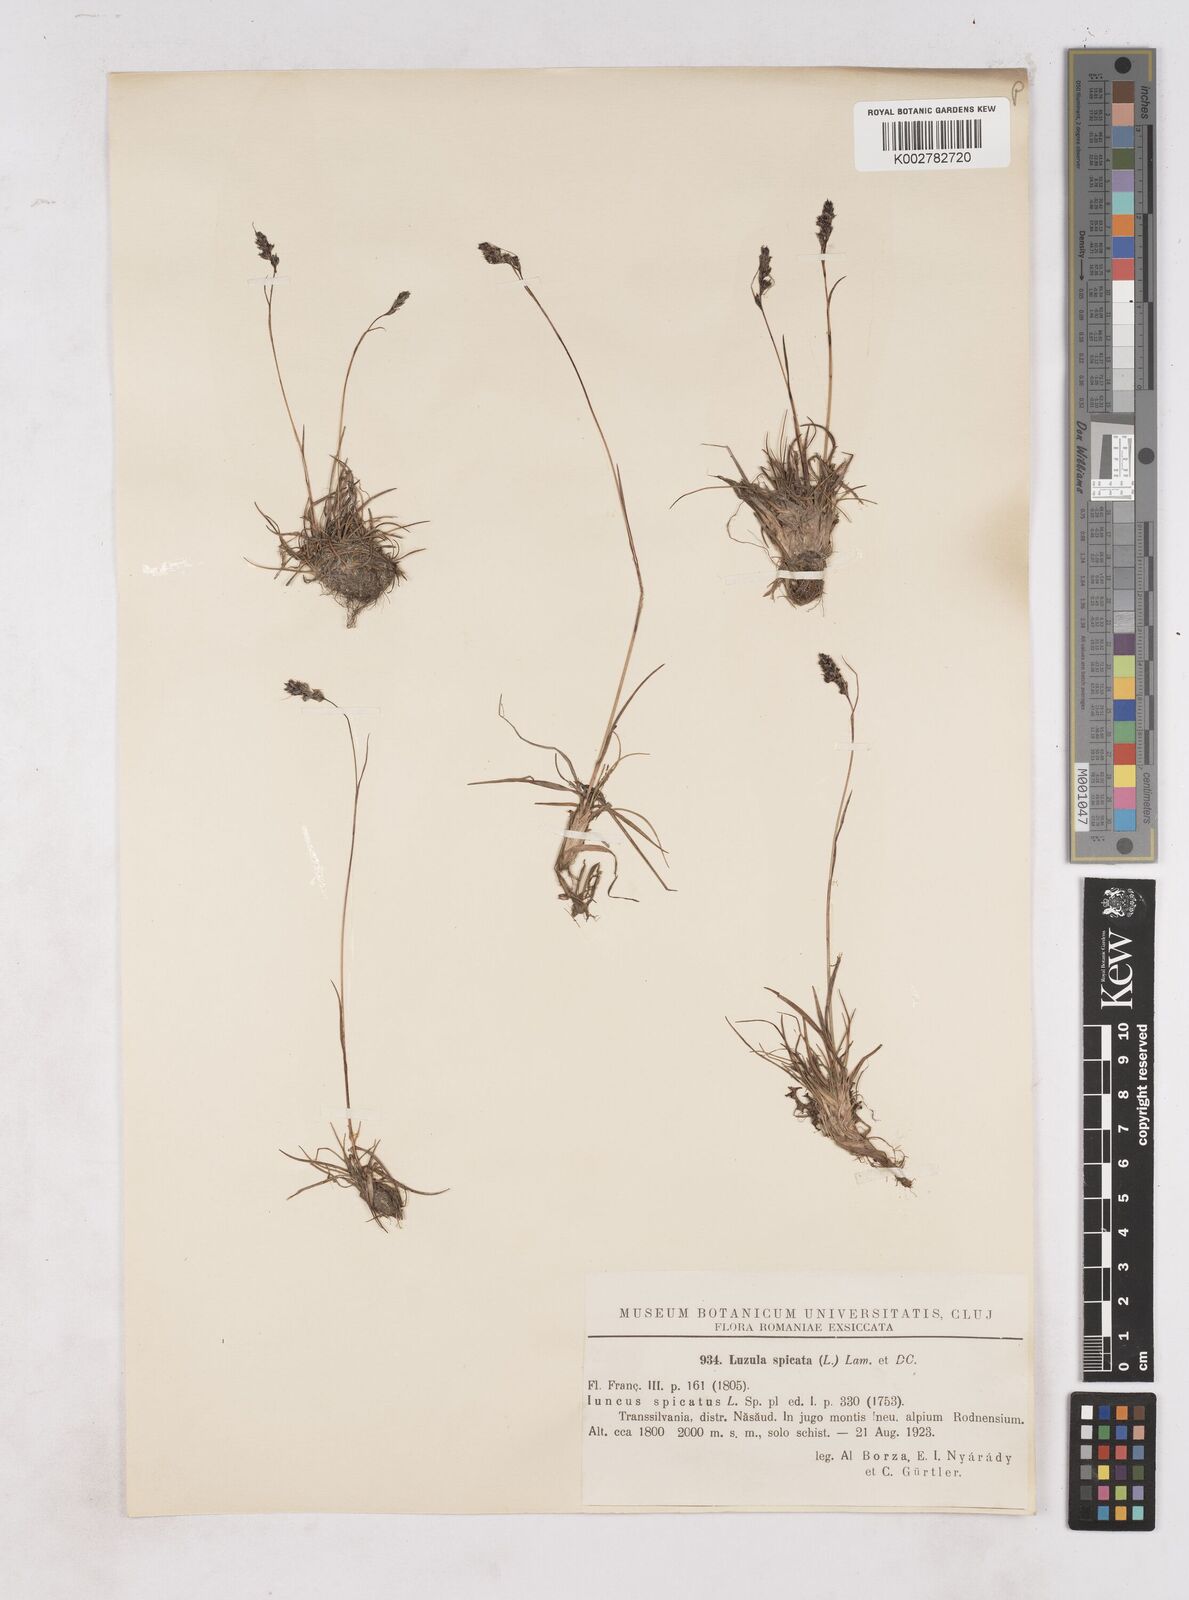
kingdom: Plantae
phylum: Tracheophyta
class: Liliopsida
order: Poales
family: Juncaceae
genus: Luzula
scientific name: Luzula spicata
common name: Spiked wood-rush
